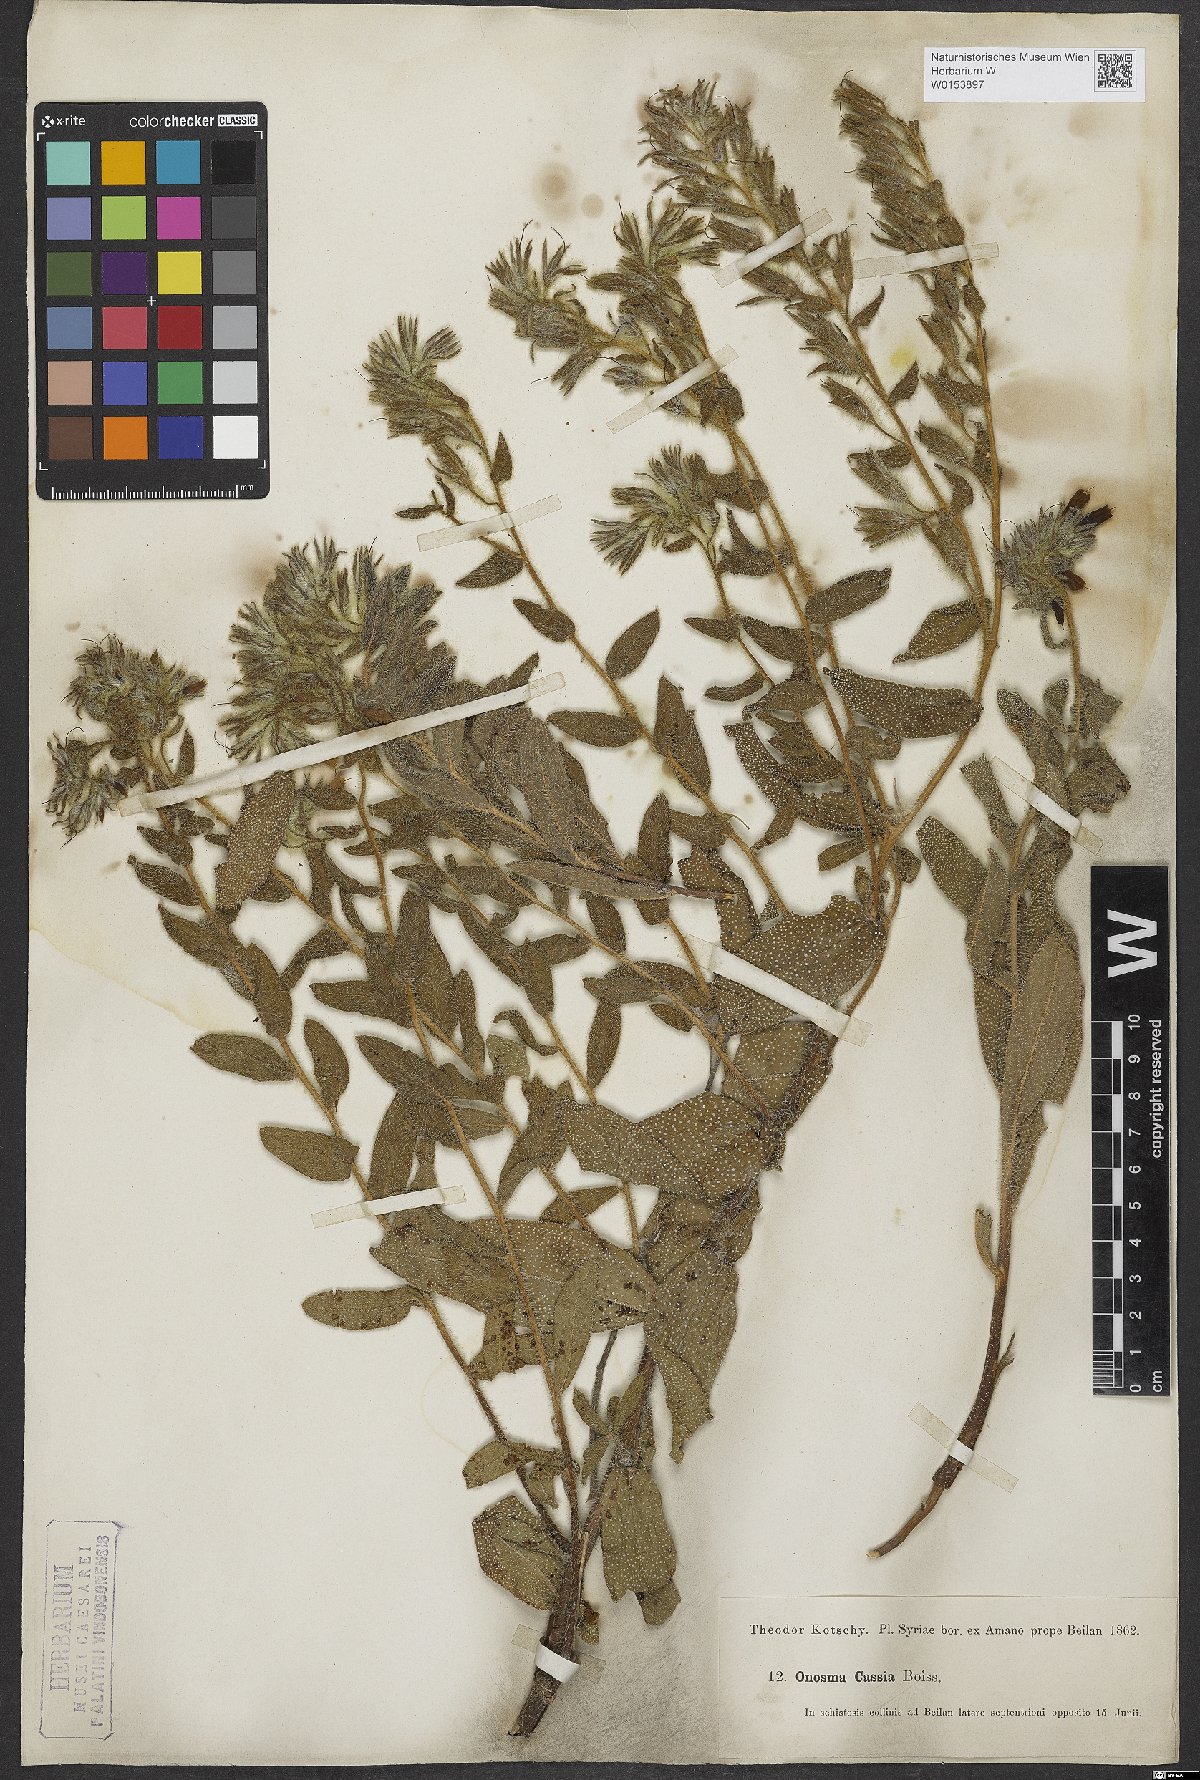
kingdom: Plantae
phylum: Tracheophyta
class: Magnoliopsida
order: Boraginales
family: Boraginaceae
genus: Onosma
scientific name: Onosma cassia
